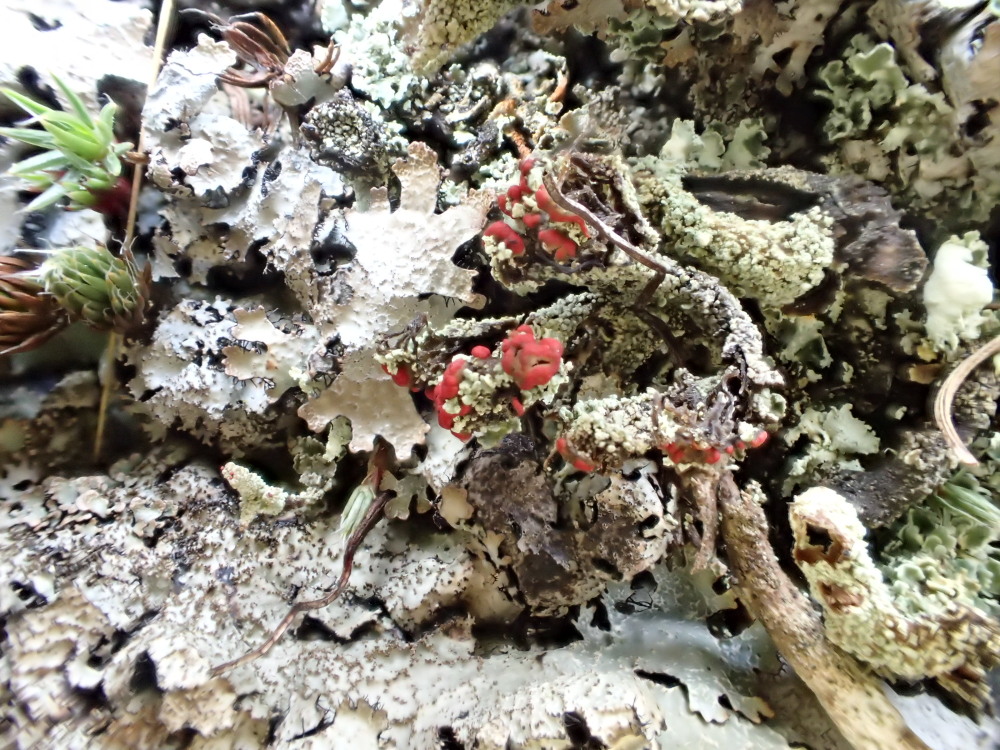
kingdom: Fungi
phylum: Ascomycota
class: Lecanoromycetes
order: Lecanorales
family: Cladoniaceae
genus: Cladonia
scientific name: Cladonia floerkeana
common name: lakrød bægerlav
